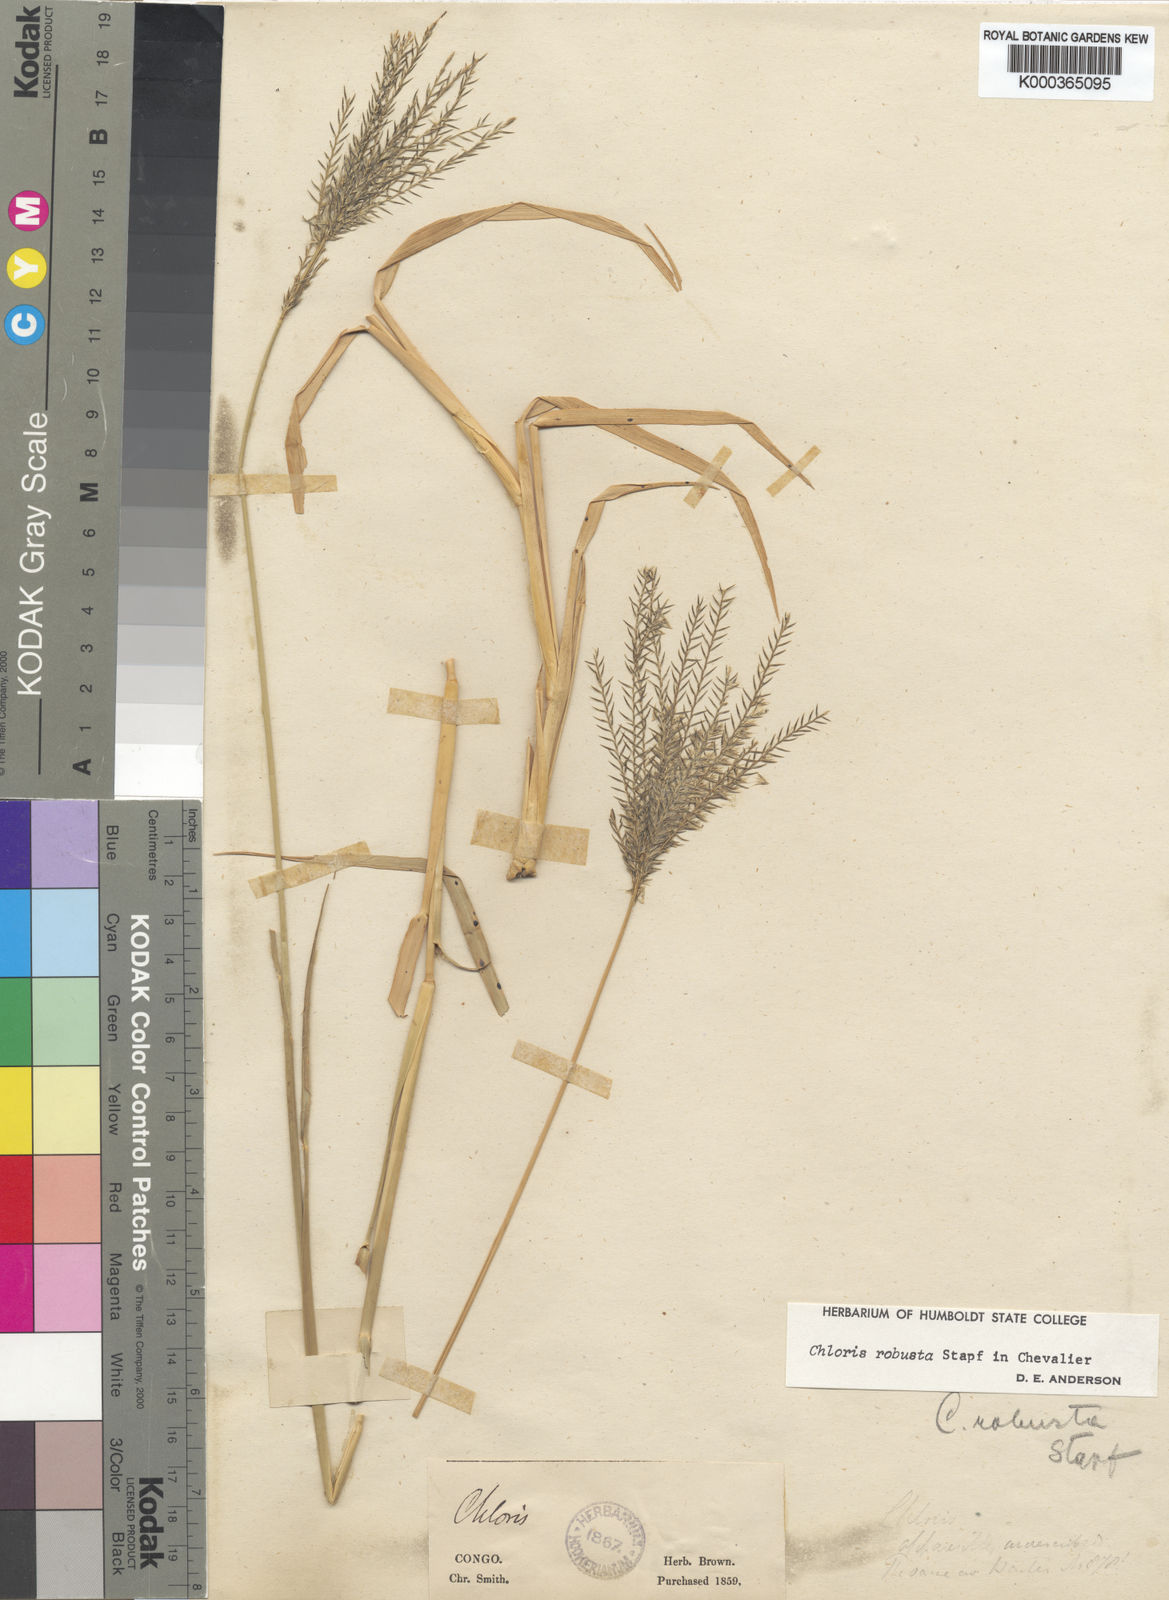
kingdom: Plantae
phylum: Tracheophyta
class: Liliopsida
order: Poales
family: Poaceae
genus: Chloris
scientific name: Chloris robusta
